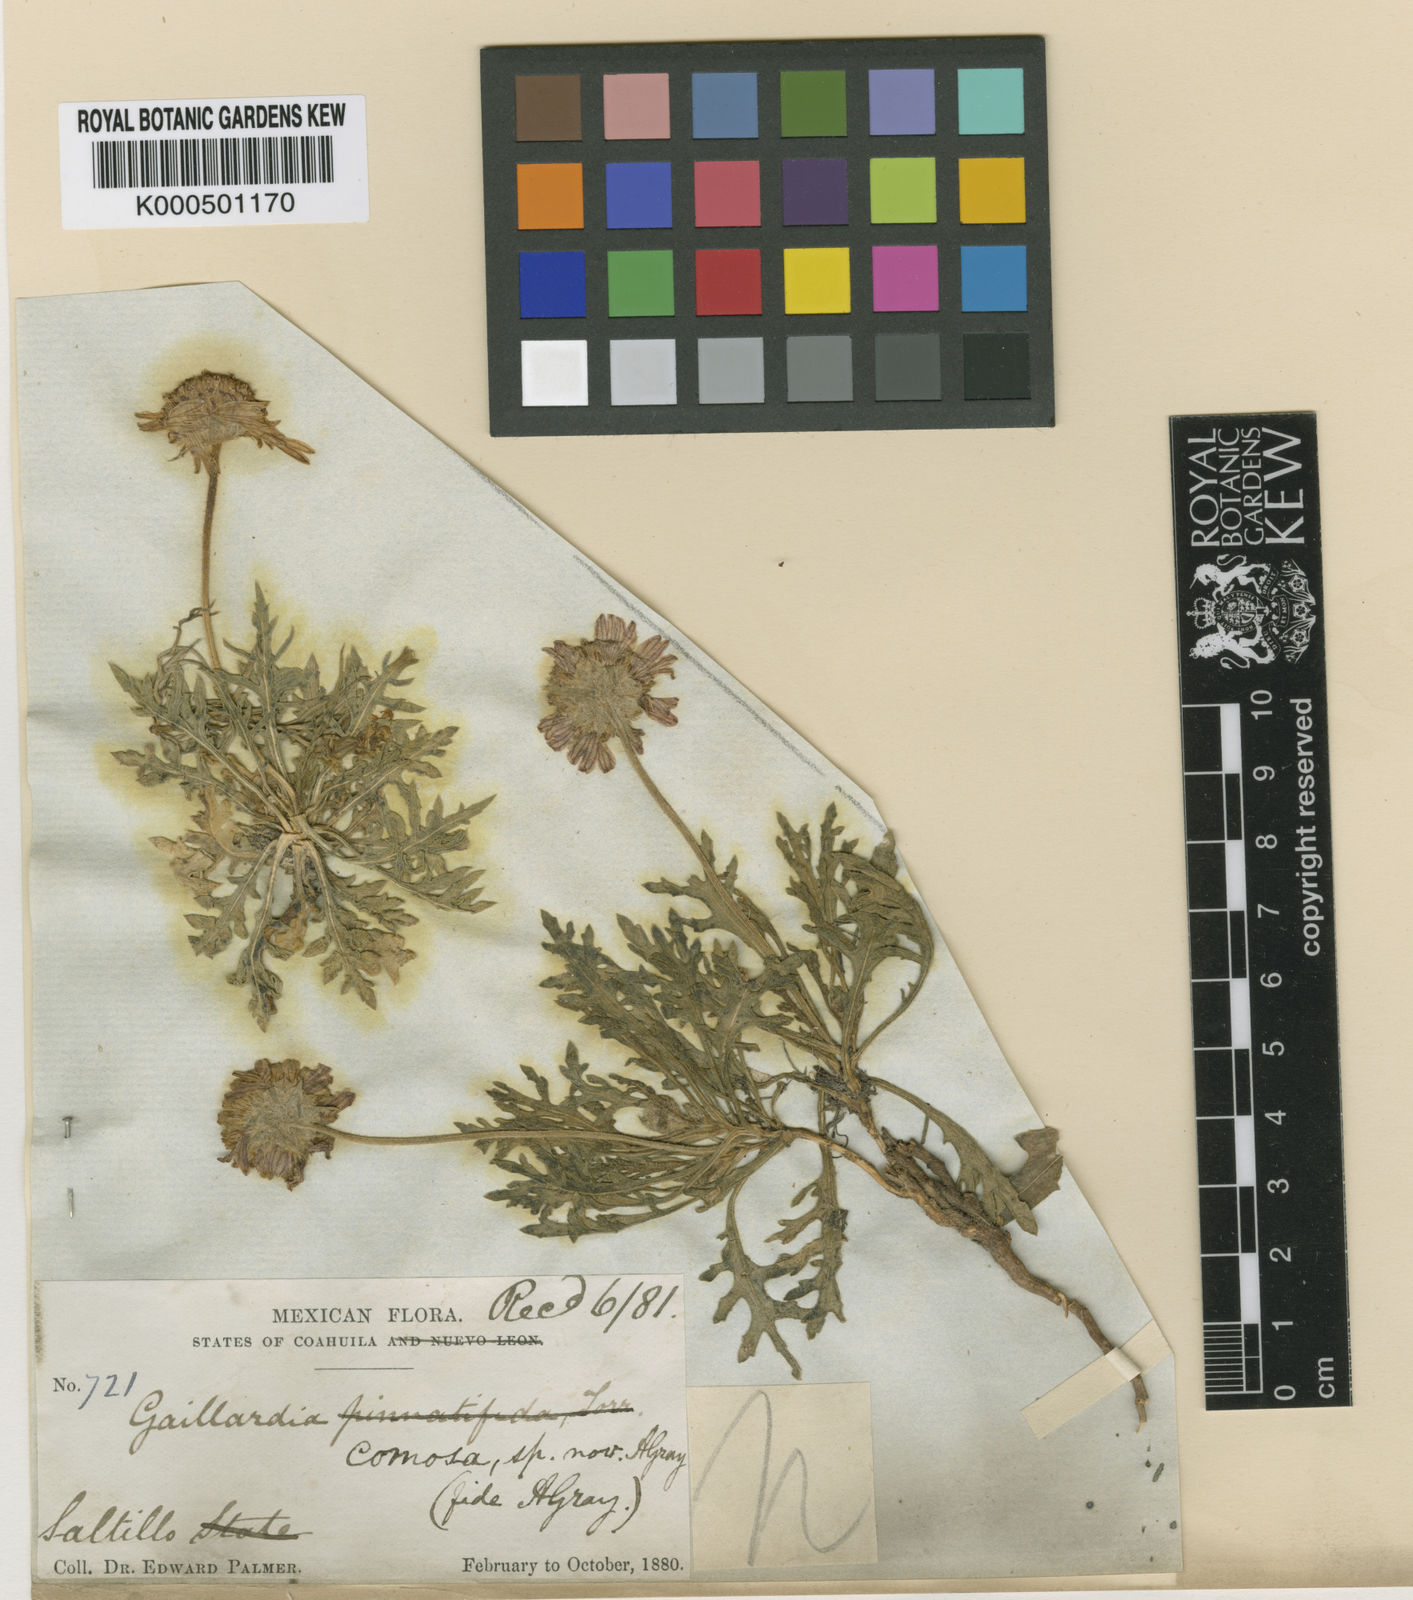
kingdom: Plantae
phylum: Tracheophyta
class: Magnoliopsida
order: Asterales
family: Asteraceae
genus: Gaillardia
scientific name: Gaillardia comosa
